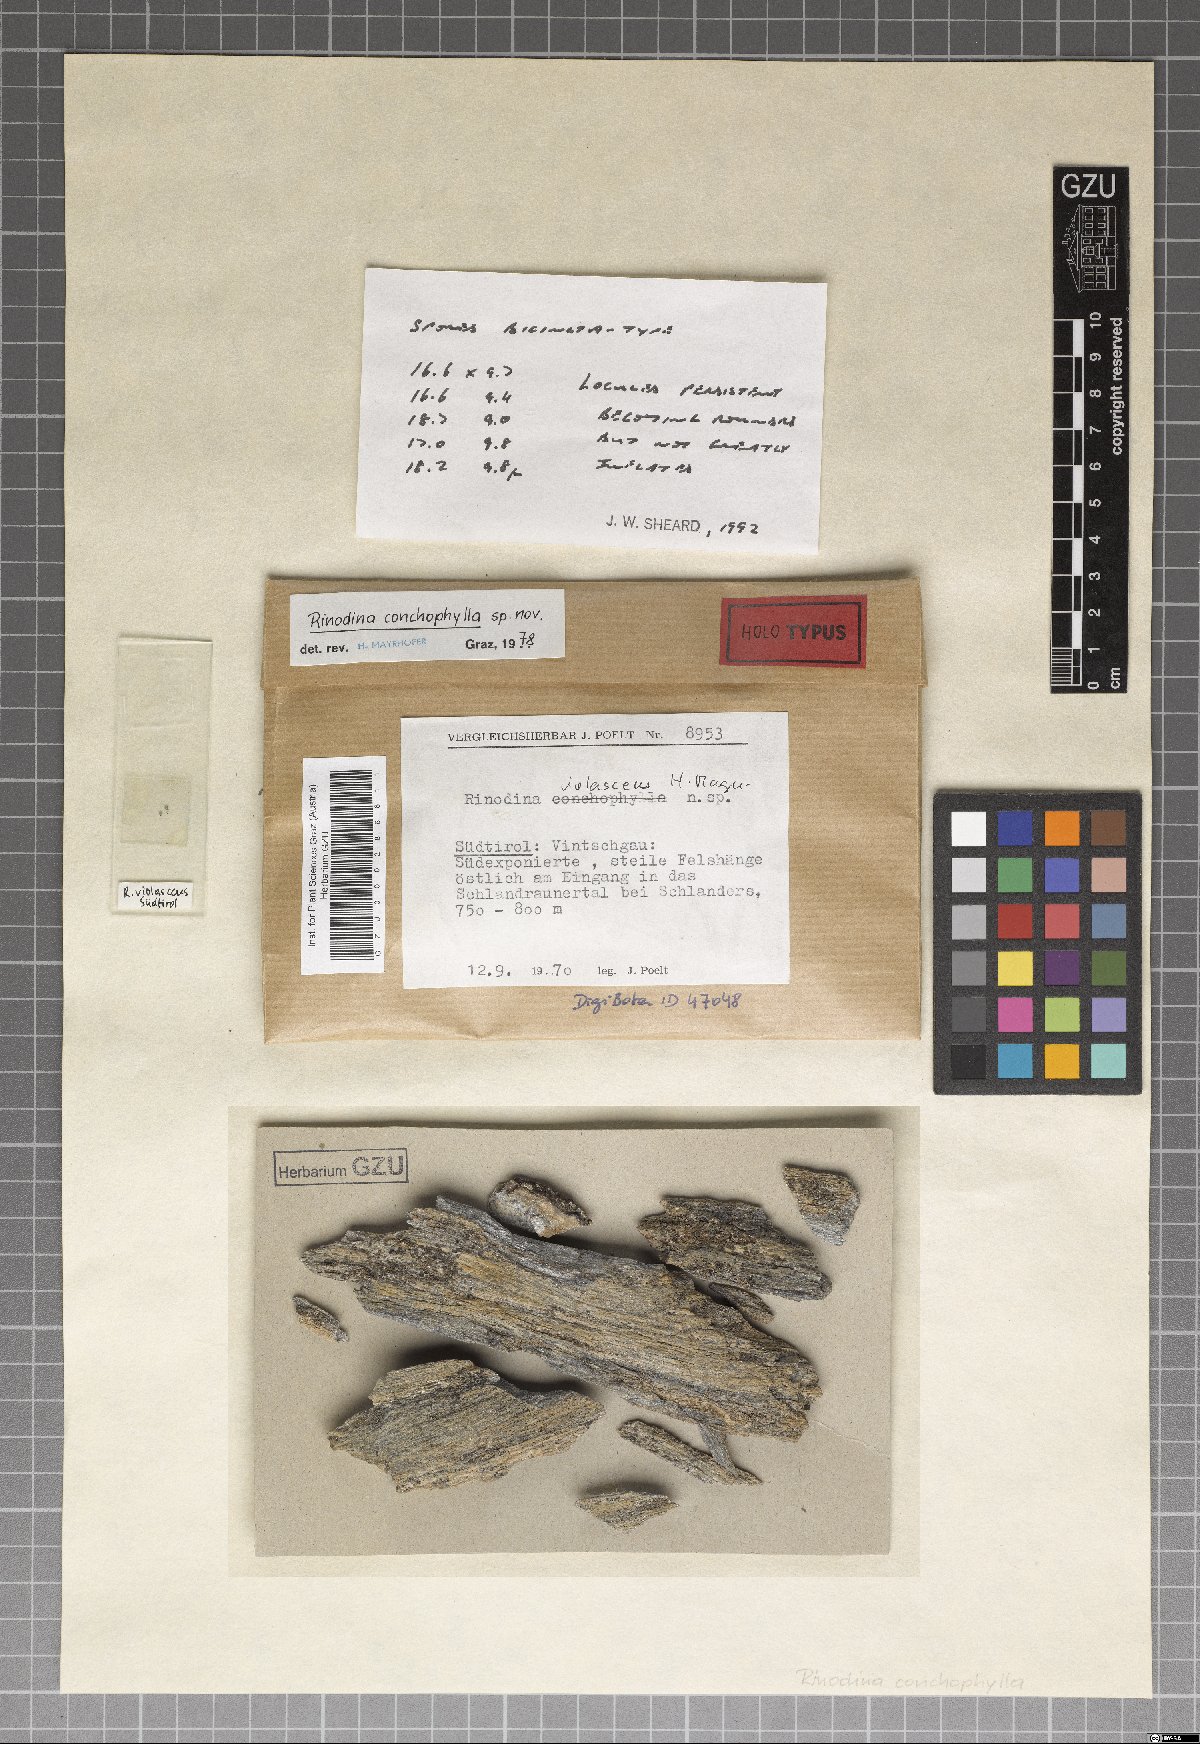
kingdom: Fungi
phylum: Ascomycota
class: Lecanoromycetes
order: Caliciales
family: Physciaceae
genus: Rinodina
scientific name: Rinodina
